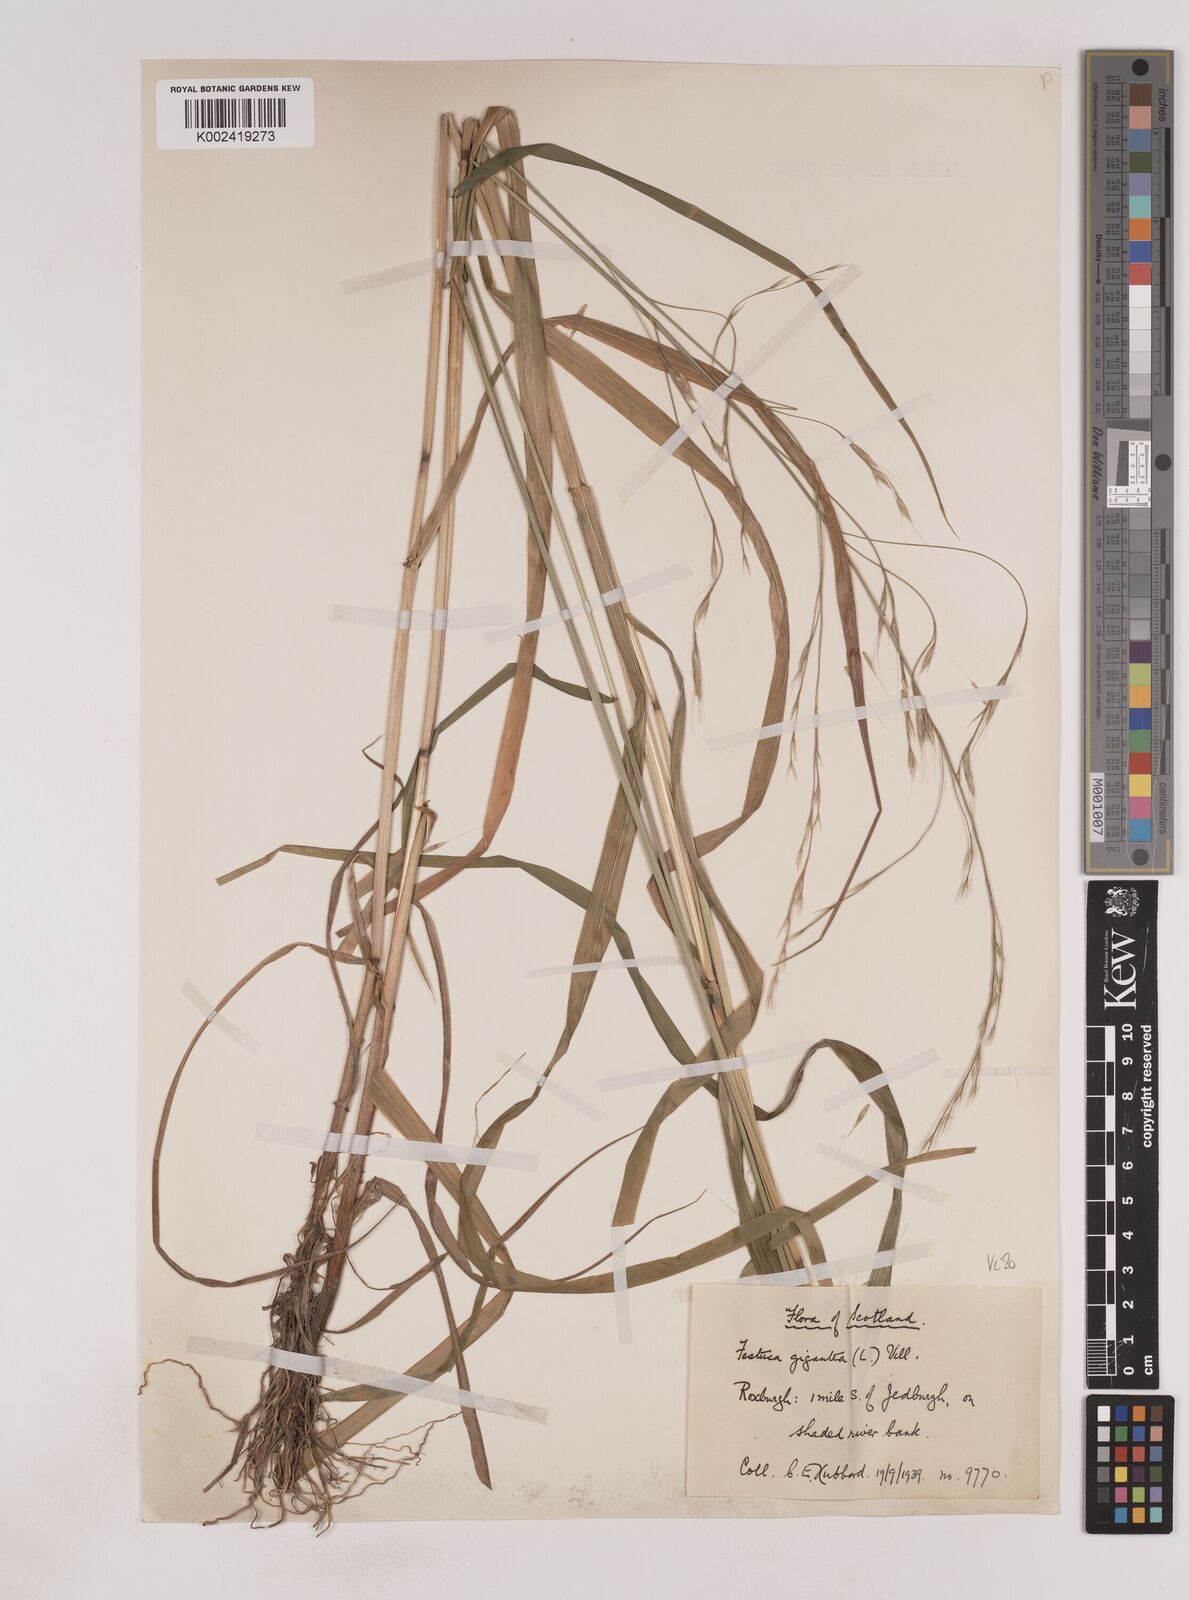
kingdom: Plantae
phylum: Tracheophyta
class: Liliopsida
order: Poales
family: Poaceae
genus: Lolium
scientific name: Lolium giganteum
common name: Giant fescue
